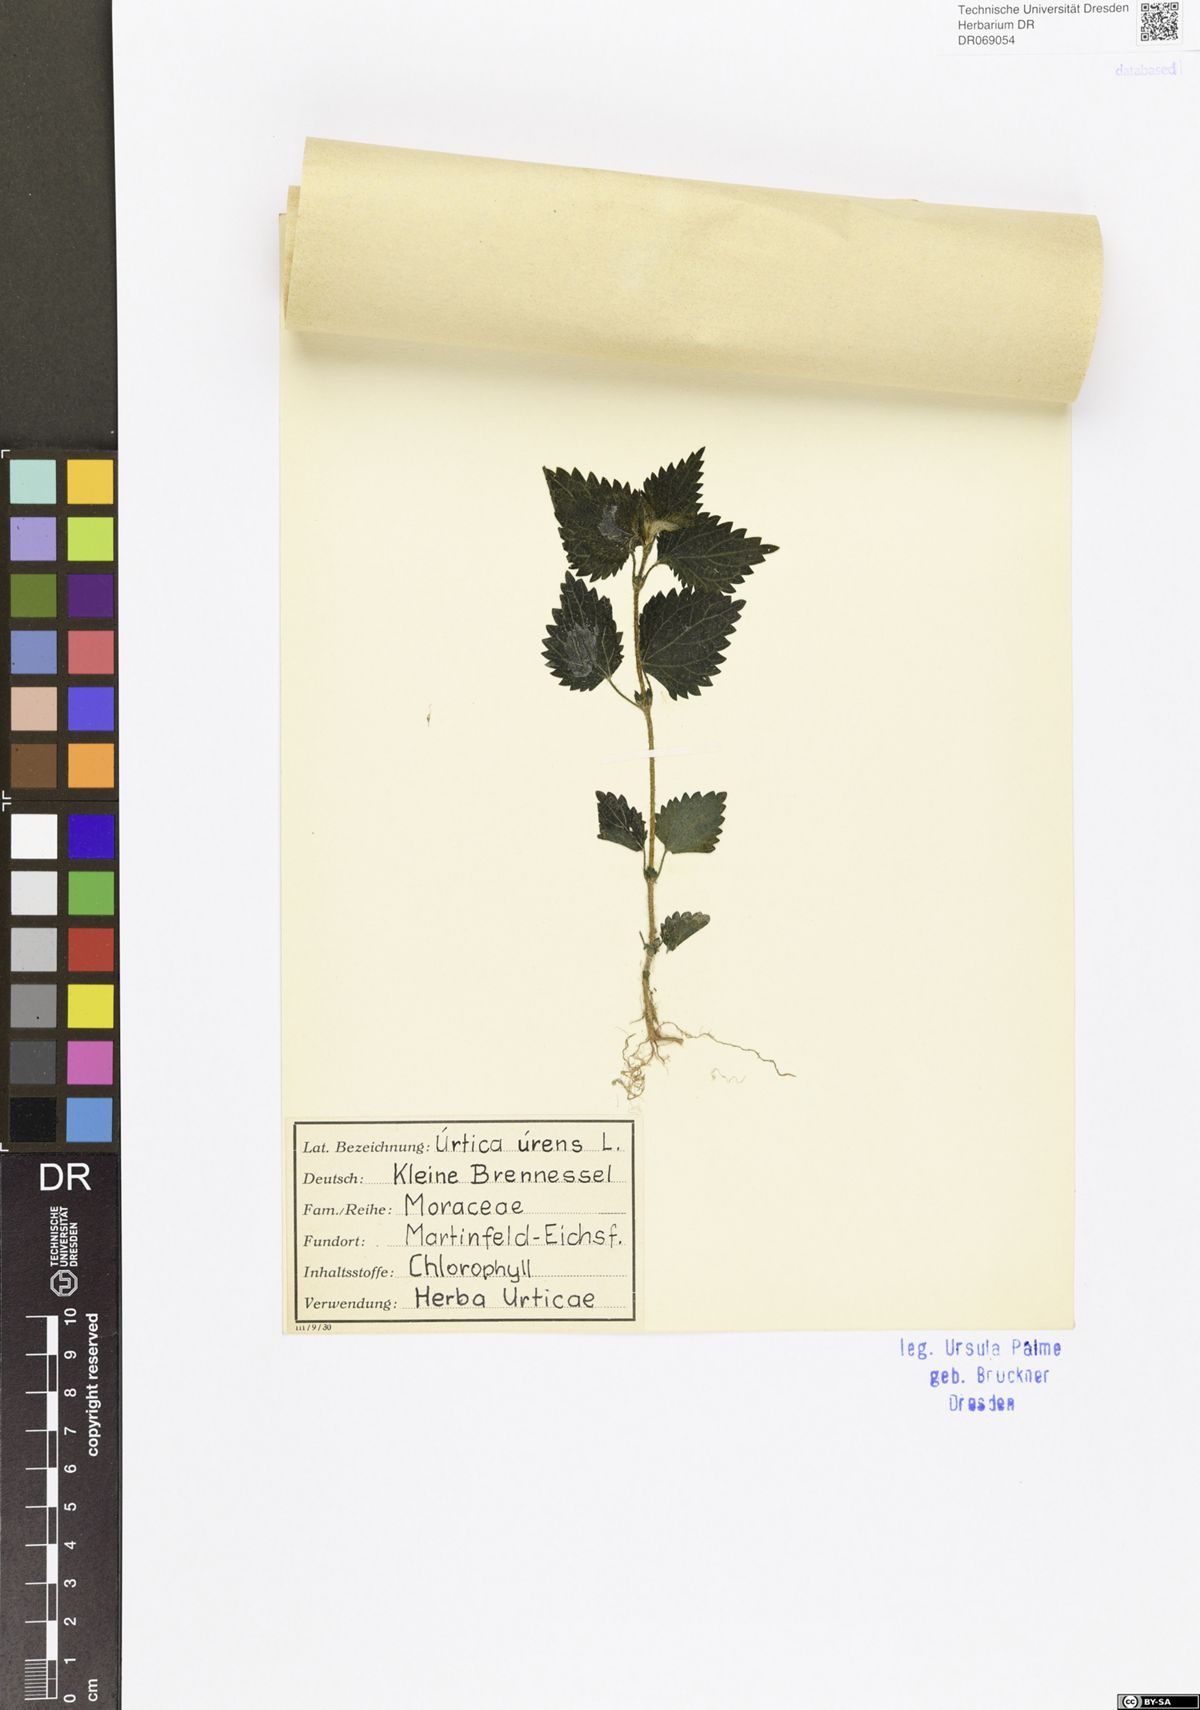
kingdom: Plantae
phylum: Tracheophyta
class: Magnoliopsida
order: Rosales
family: Urticaceae
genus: Urtica
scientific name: Urtica urens
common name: Dwarf nettle
